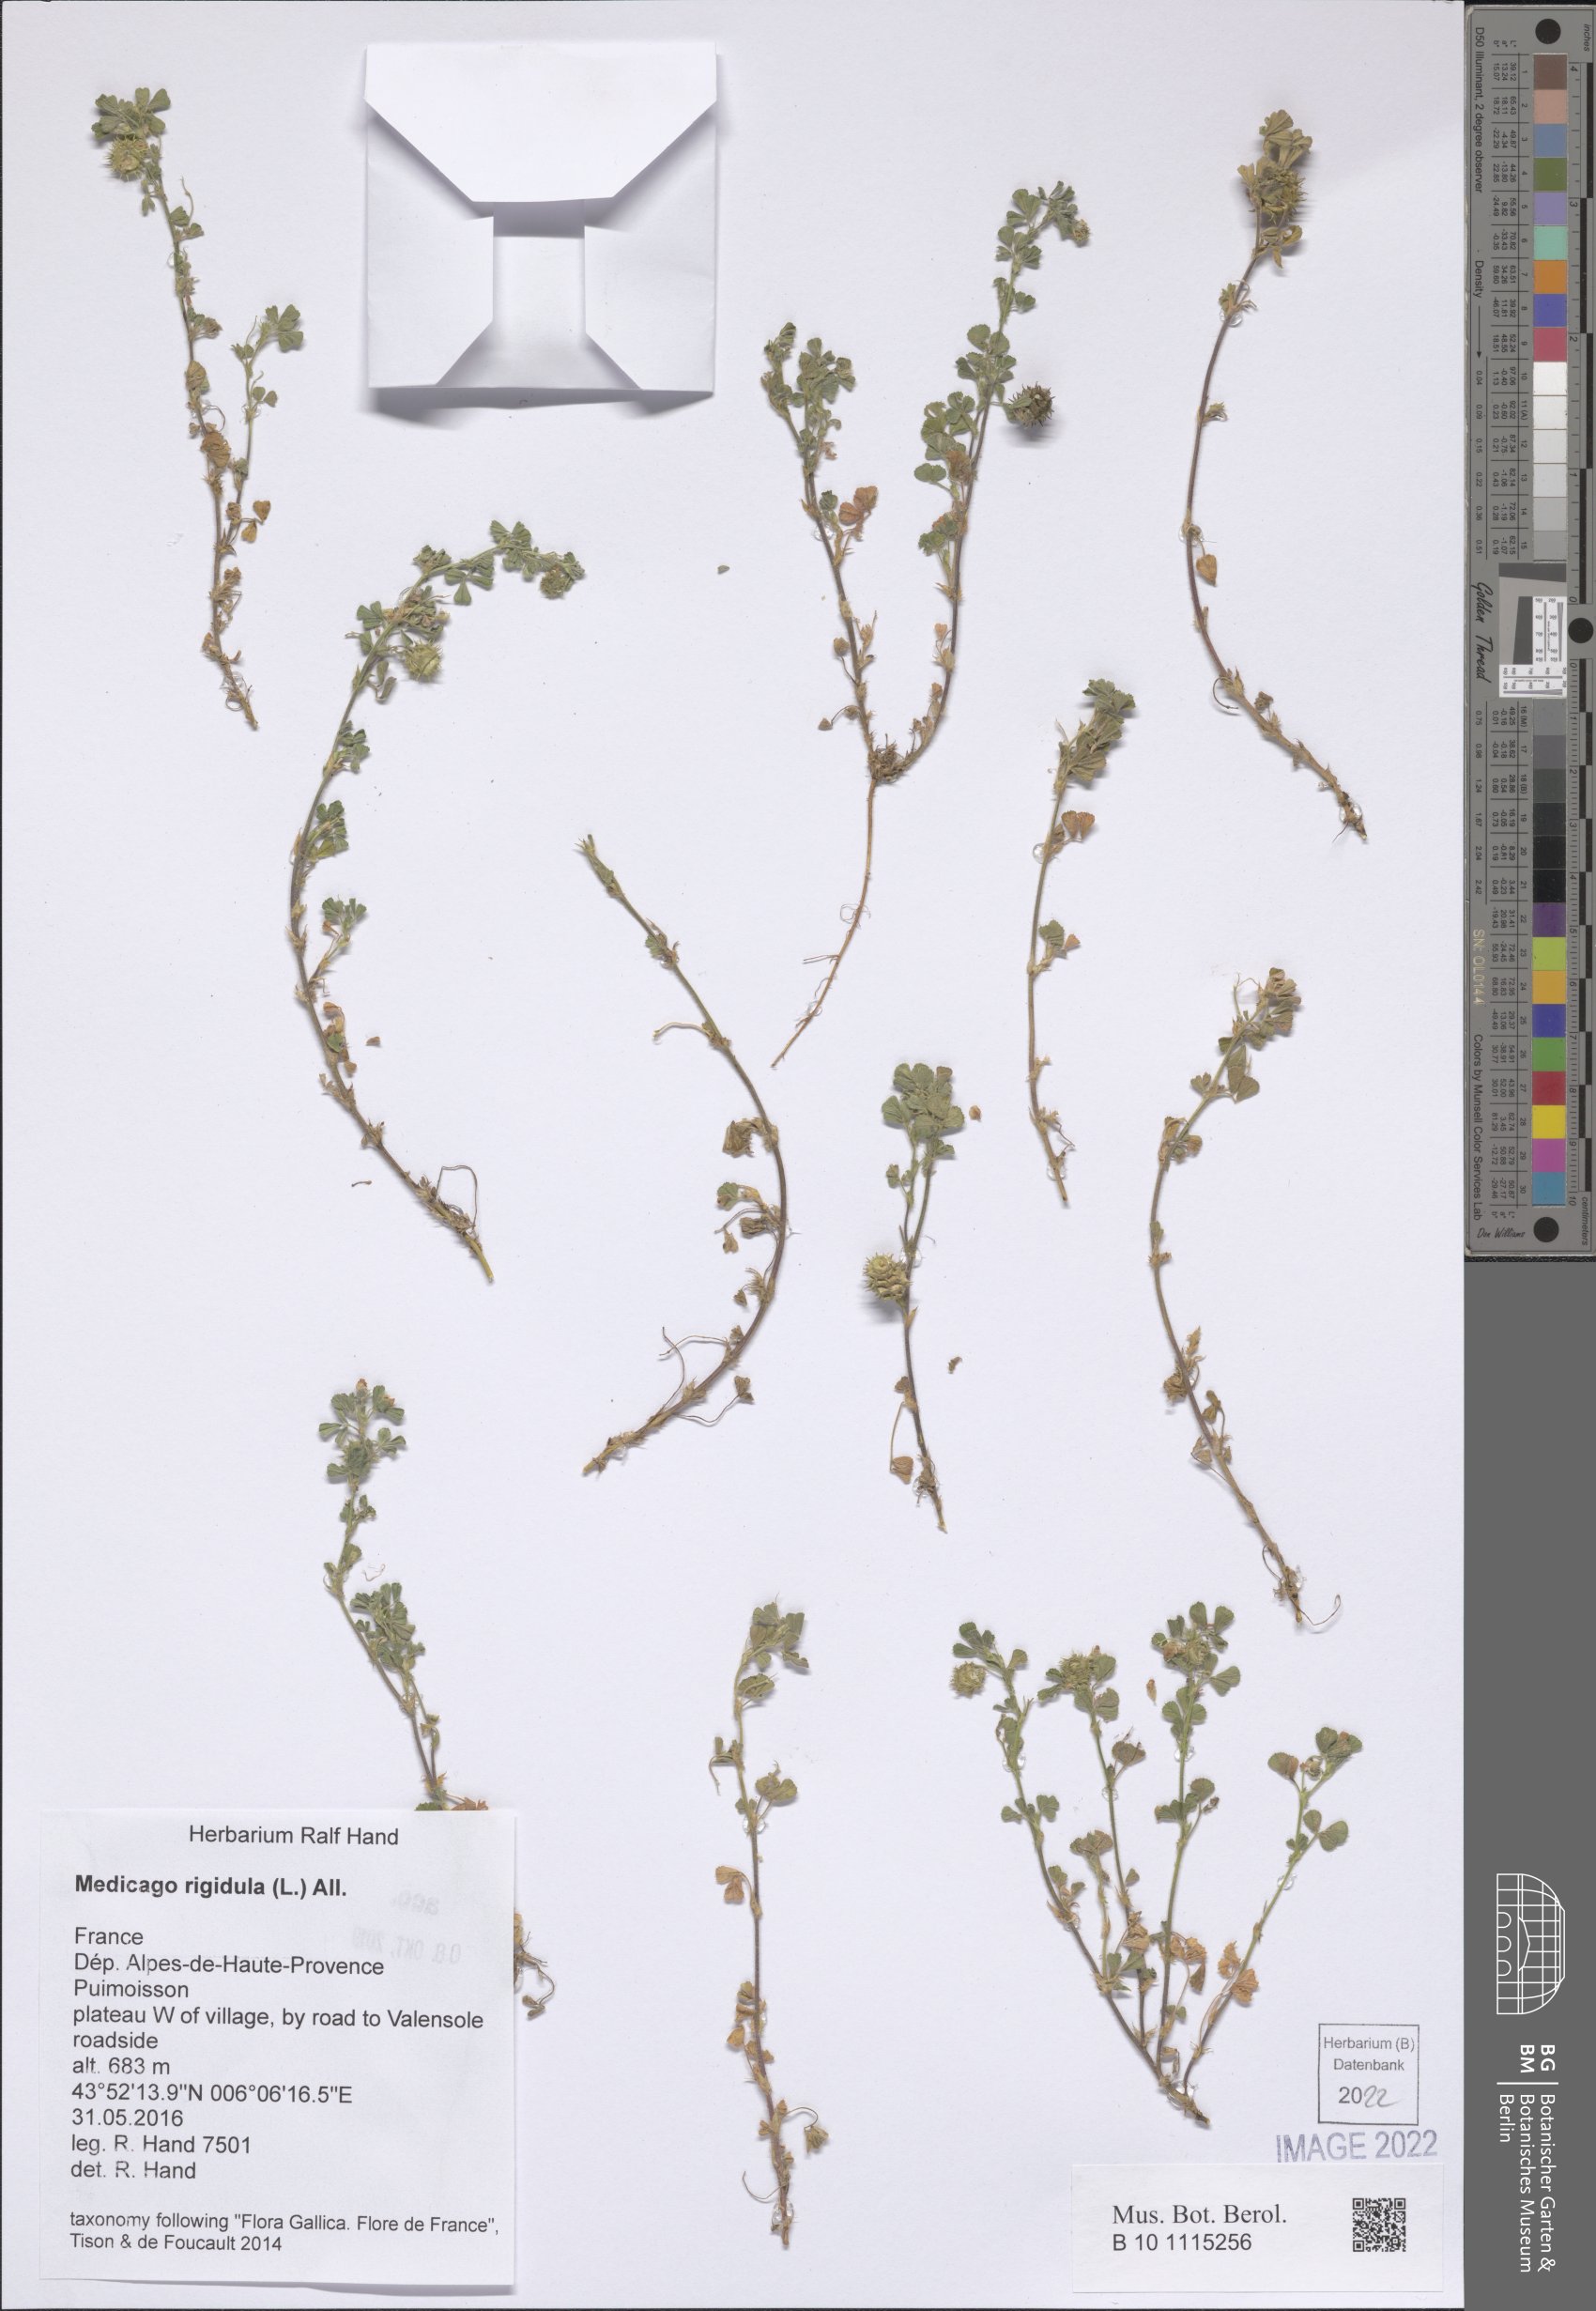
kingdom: Plantae
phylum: Tracheophyta
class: Magnoliopsida
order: Fabales
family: Fabaceae
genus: Medicago
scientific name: Medicago rigidula
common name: Tifton medic
